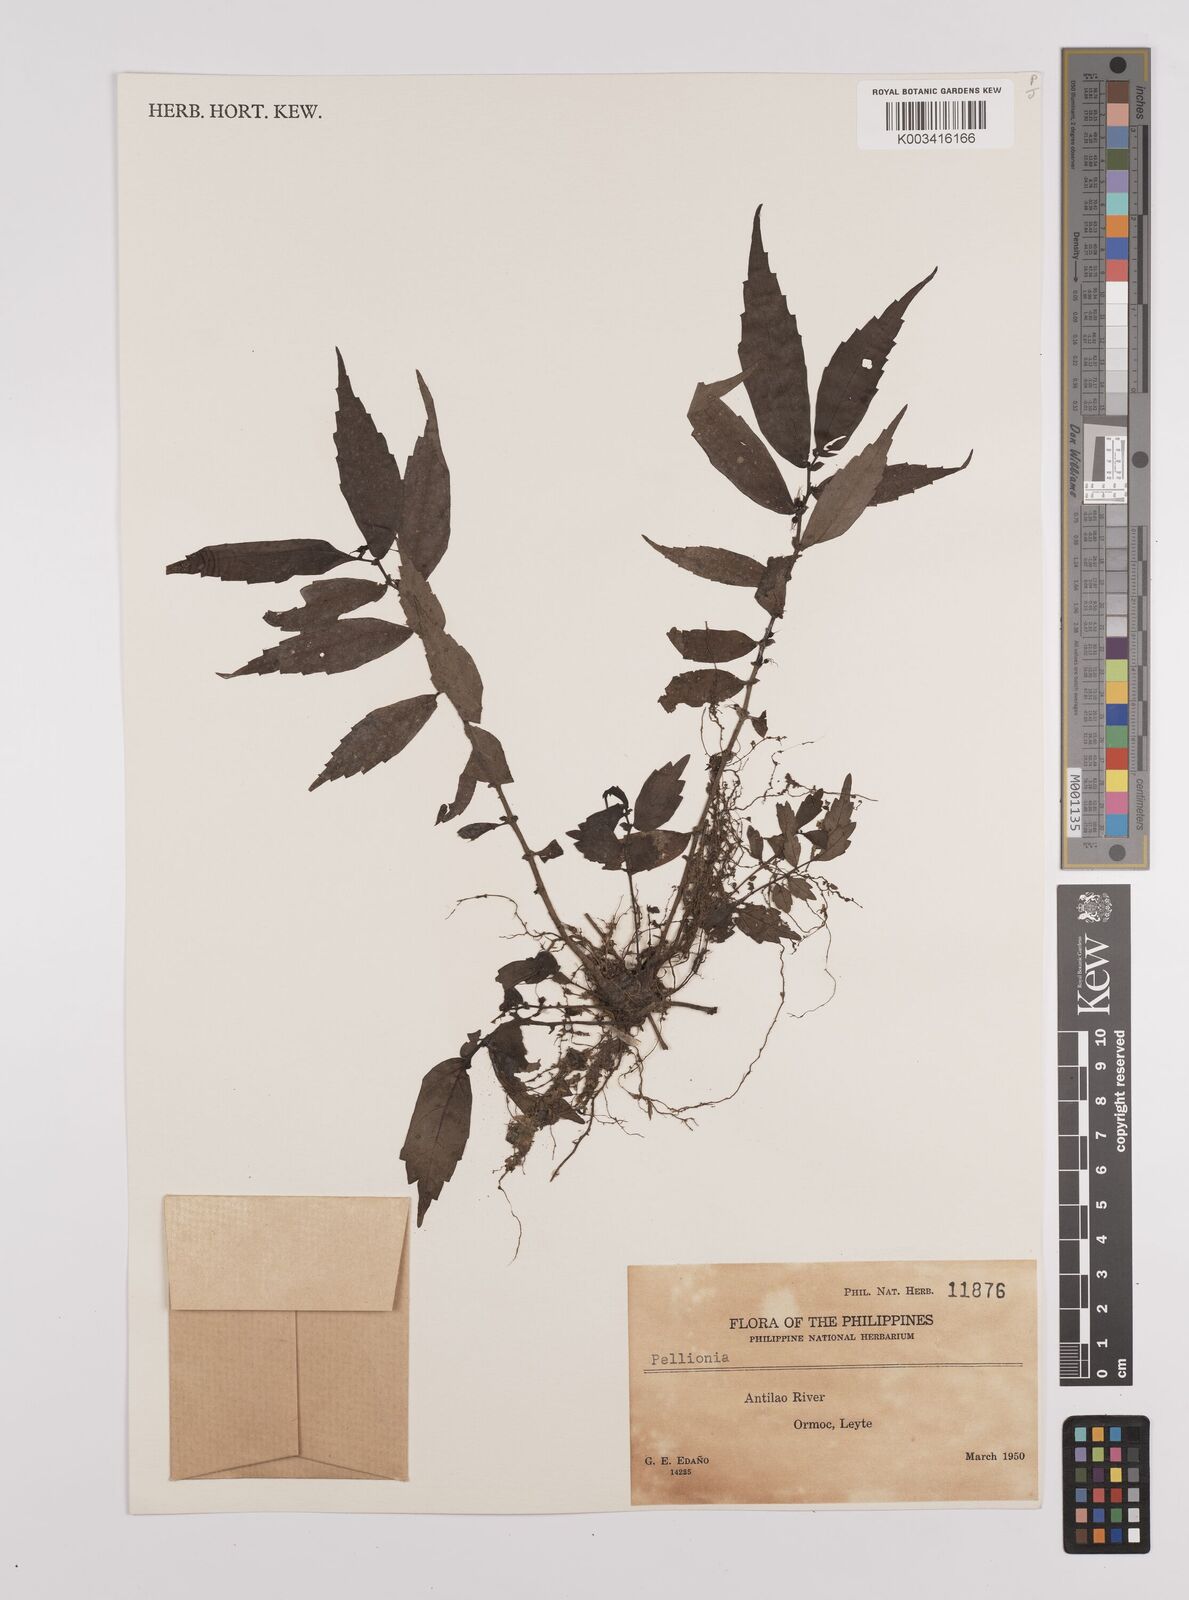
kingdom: Plantae
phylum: Tracheophyta
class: Magnoliopsida
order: Rosales
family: Urticaceae
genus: Elatostema
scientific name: Elatostema
